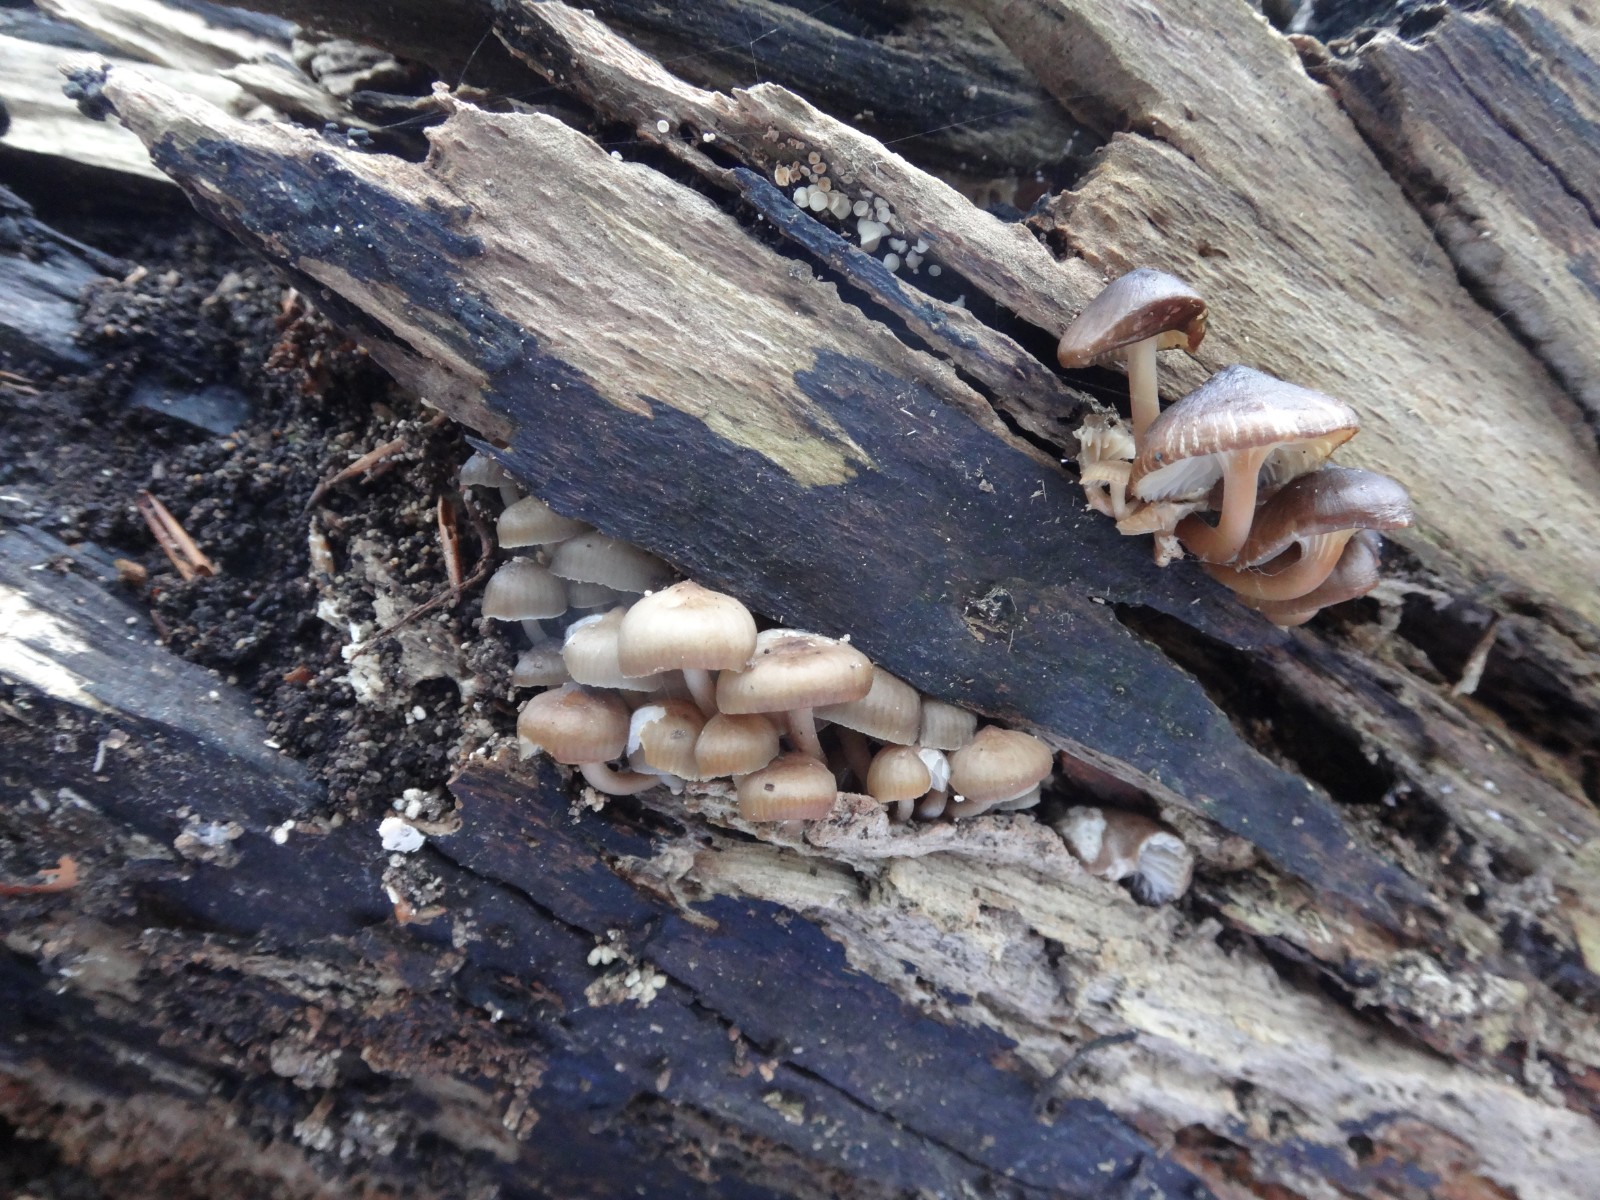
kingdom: Fungi
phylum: Basidiomycota
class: Agaricomycetes
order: Agaricales
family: Mycenaceae
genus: Mycena
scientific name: Mycena tintinnabulum
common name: vinter-huesvamp
